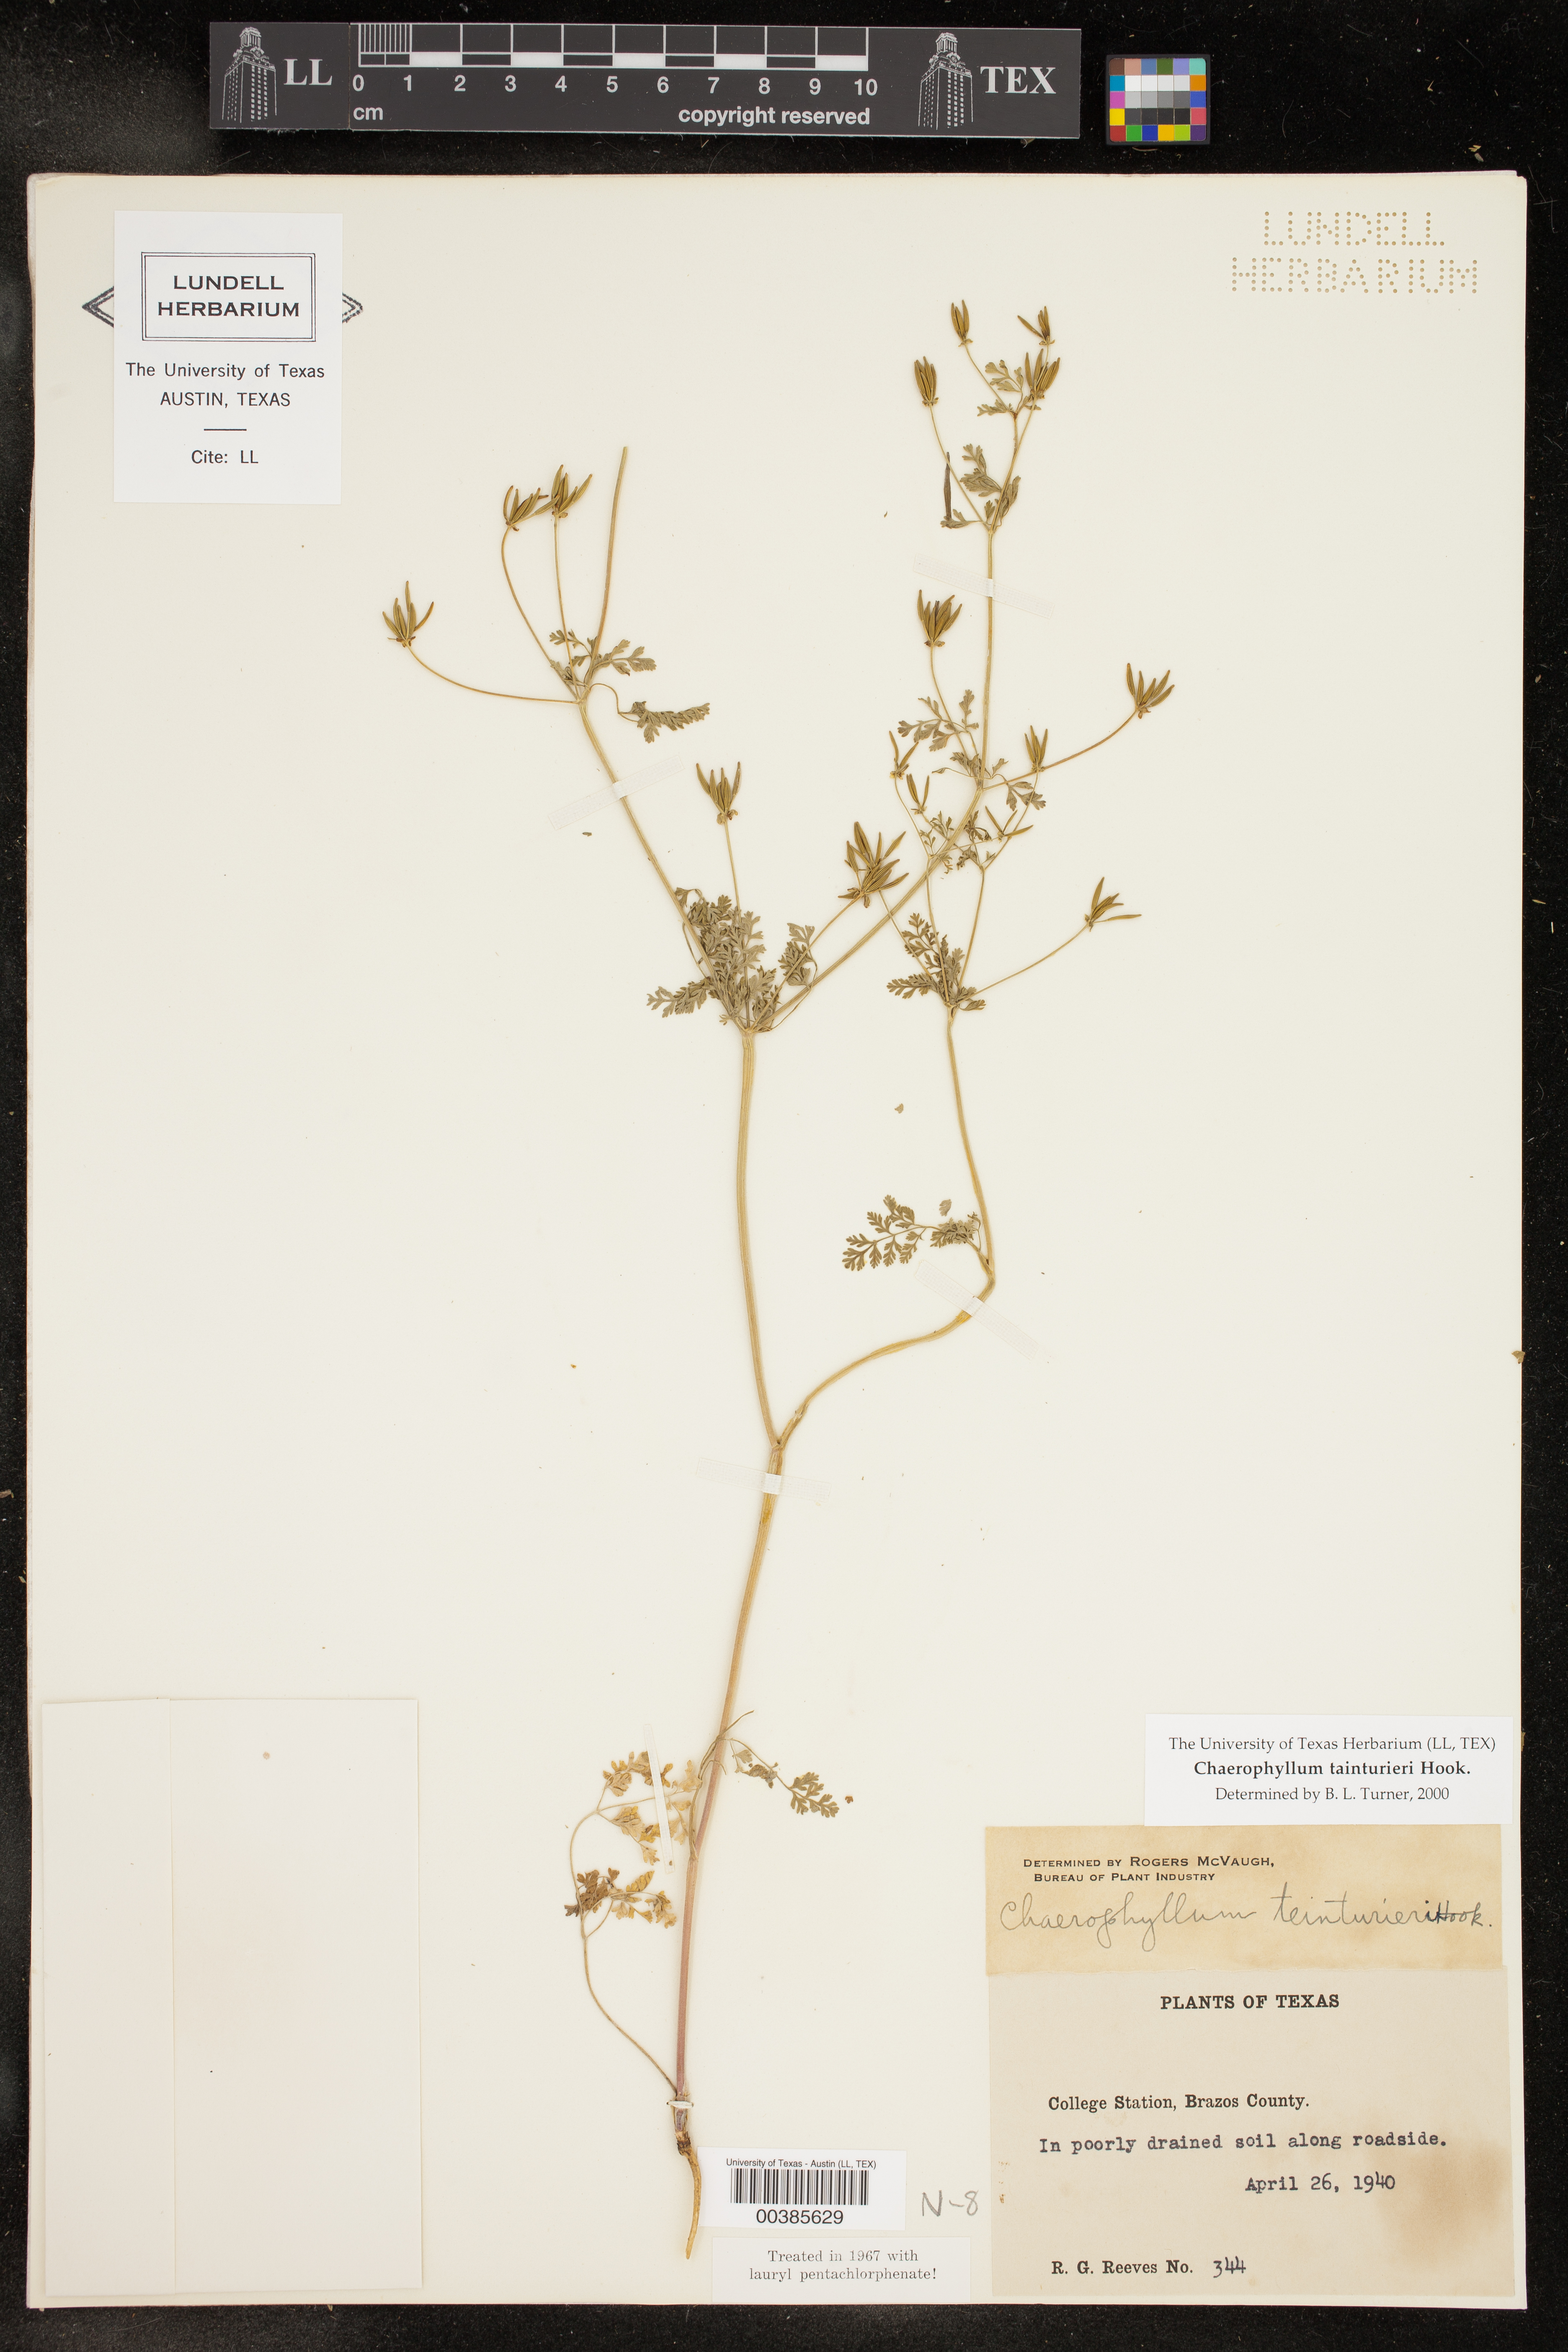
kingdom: Plantae
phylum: Tracheophyta
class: Magnoliopsida
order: Apiales
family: Apiaceae
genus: Chaerophyllum
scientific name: Chaerophyllum tainturieri
